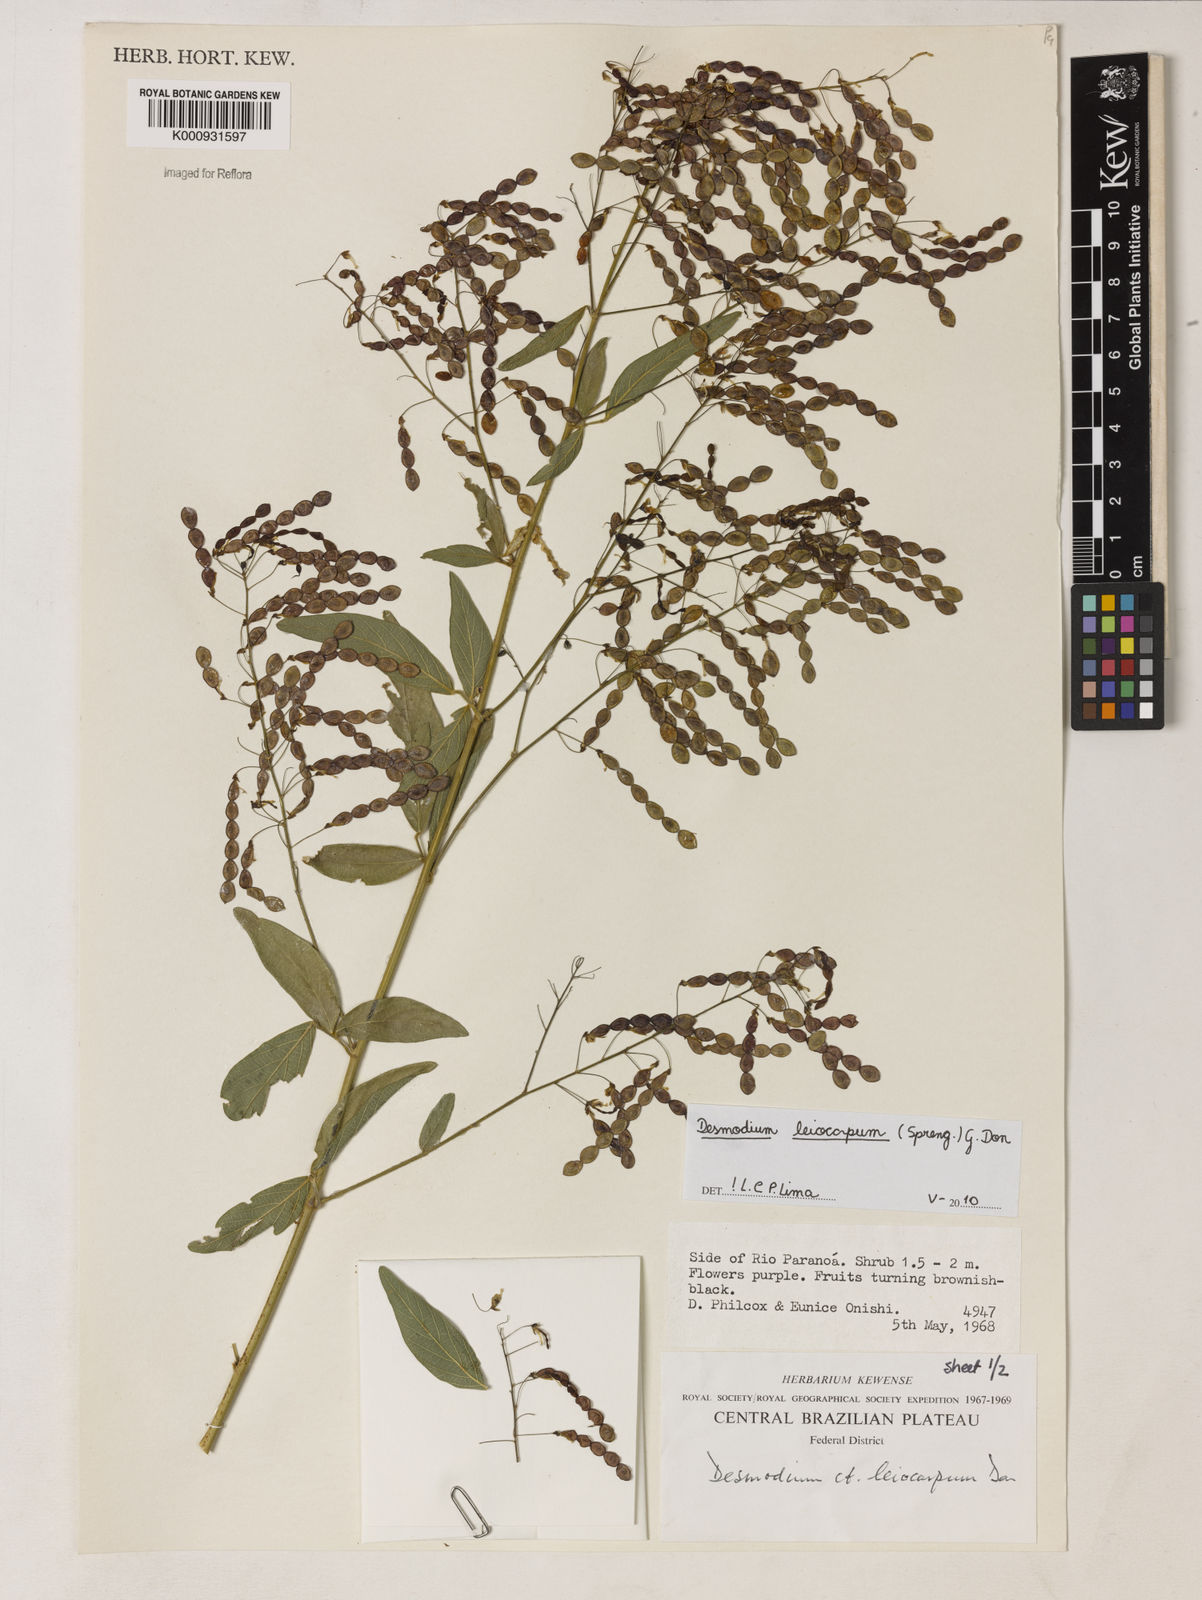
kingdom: Plantae
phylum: Tracheophyta
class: Magnoliopsida
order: Fabales
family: Fabaceae
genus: Desmodium
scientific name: Desmodium leiocarpum
